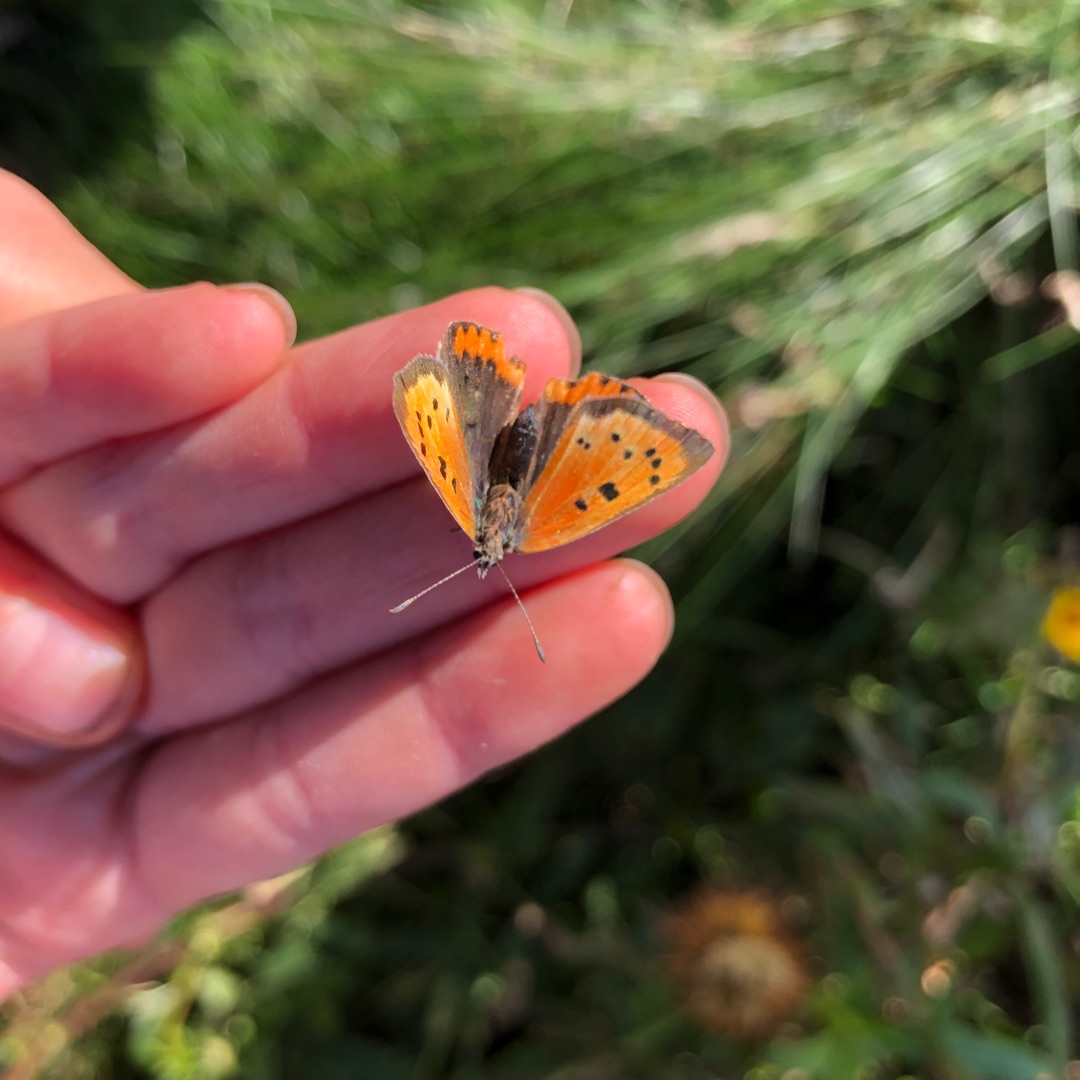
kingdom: Animalia
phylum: Arthropoda
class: Insecta
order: Lepidoptera
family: Lycaenidae
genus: Lycaena
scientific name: Lycaena phlaeas
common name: Lille ildfugl
